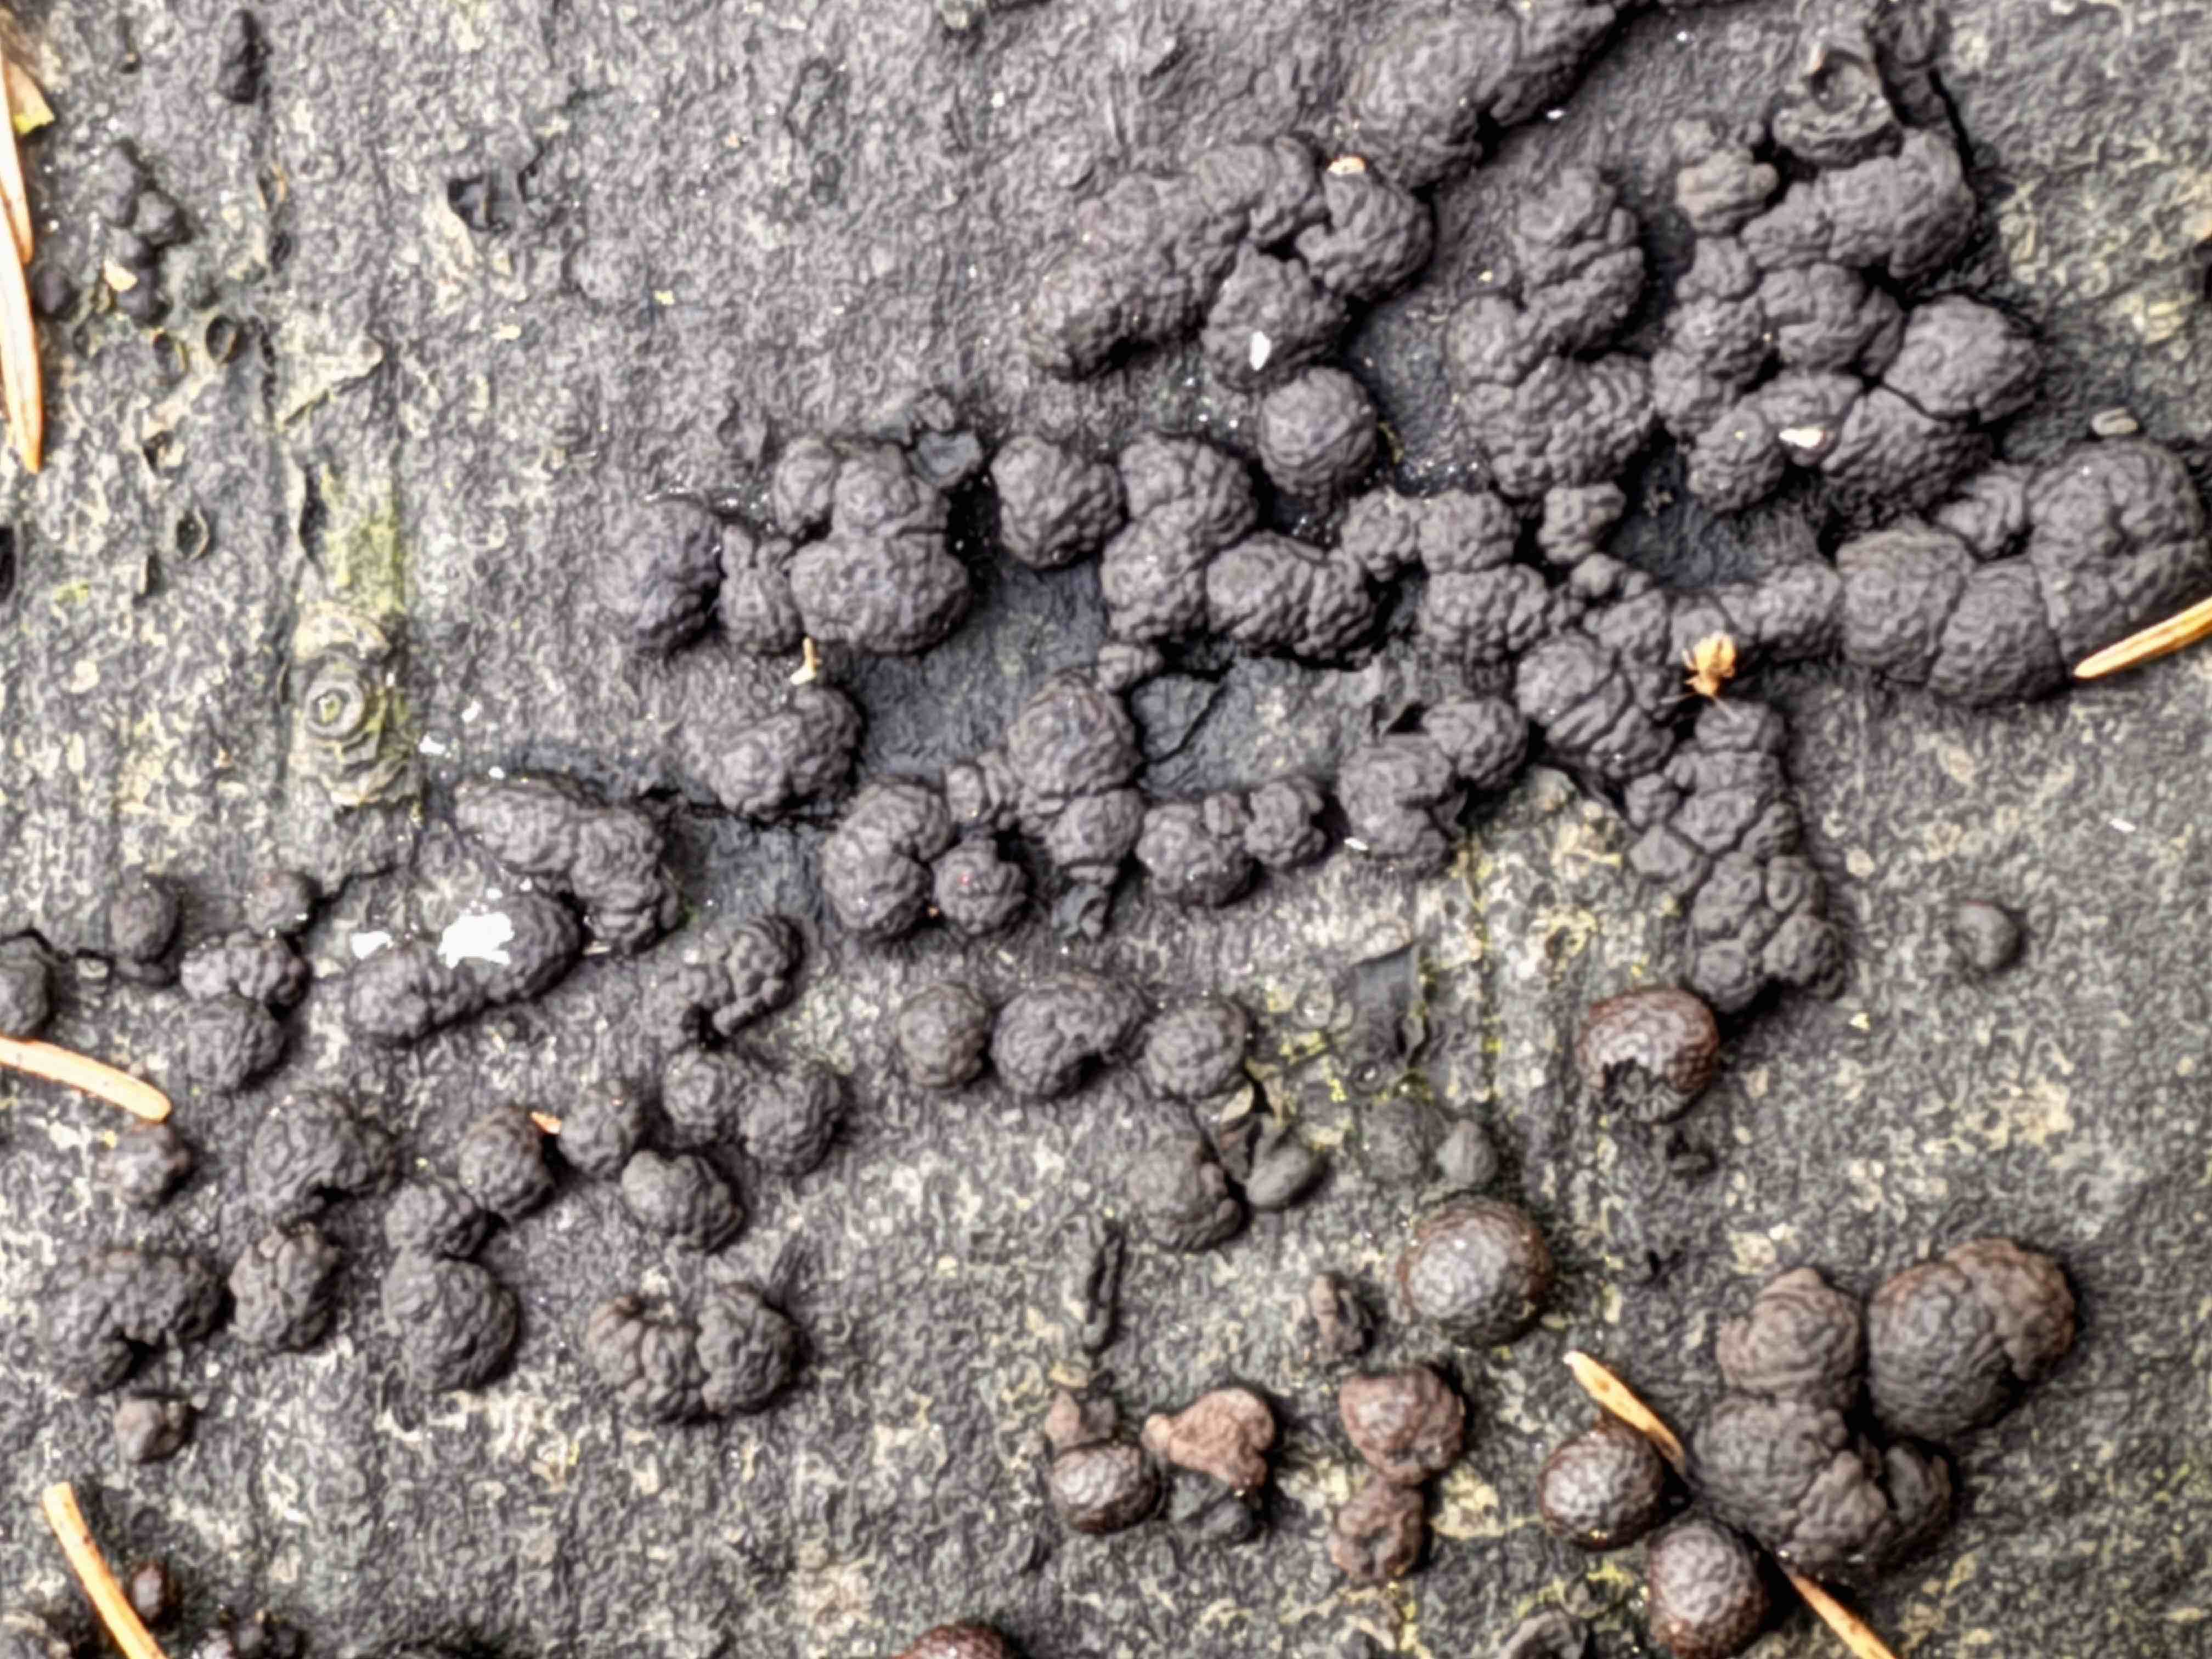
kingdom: Fungi
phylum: Ascomycota
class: Sordariomycetes
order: Xylariales
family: Hypoxylaceae
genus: Jackrogersella
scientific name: Jackrogersella cohaerens
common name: sammenflydende kulbær
